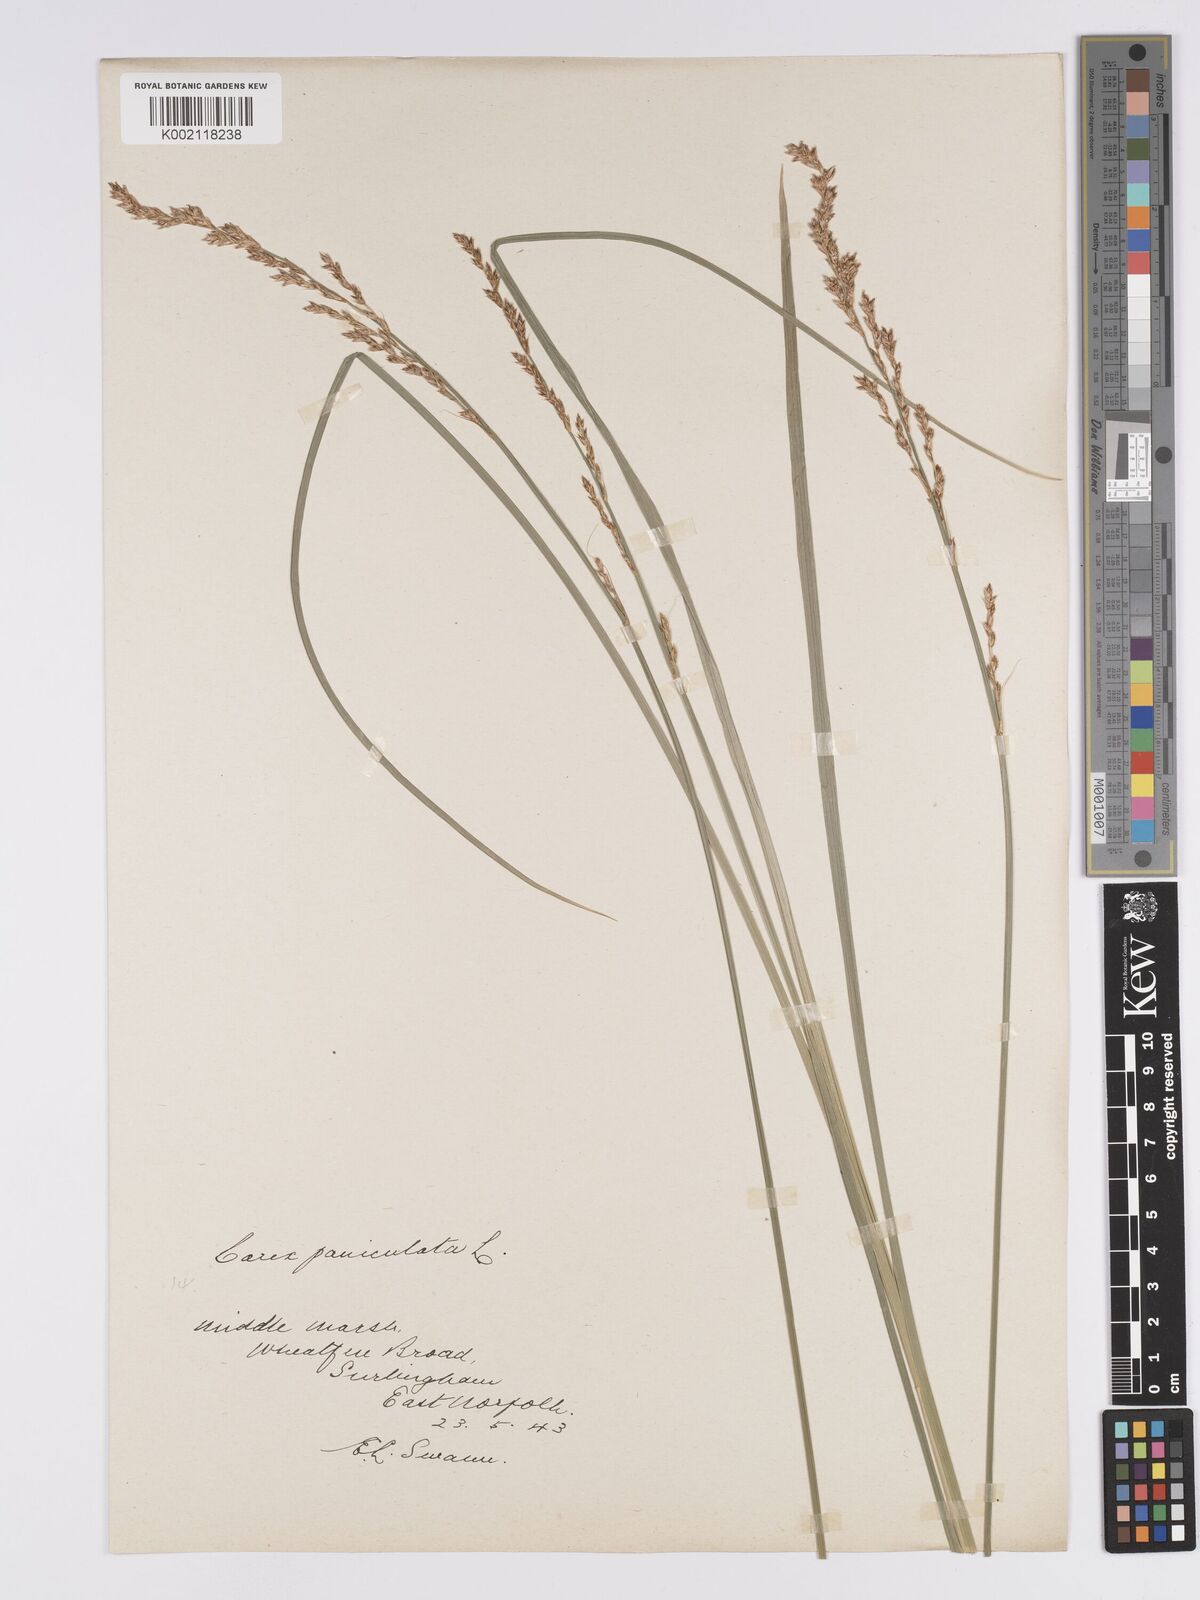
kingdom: Plantae
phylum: Tracheophyta
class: Liliopsida
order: Poales
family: Cyperaceae
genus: Carex
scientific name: Carex paniculata
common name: Greater tussock-sedge
